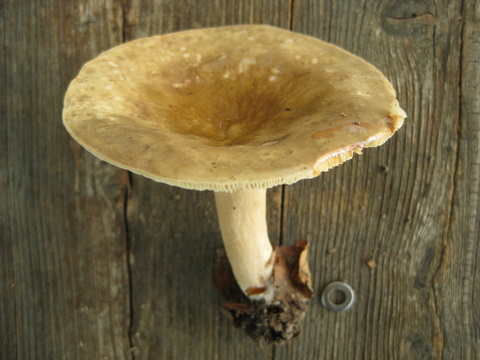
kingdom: Fungi
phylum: Basidiomycota
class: Agaricomycetes
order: Russulales
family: Russulaceae
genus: Lactarius
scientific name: Lactarius pterosporus
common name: vingesporet mælkehat
